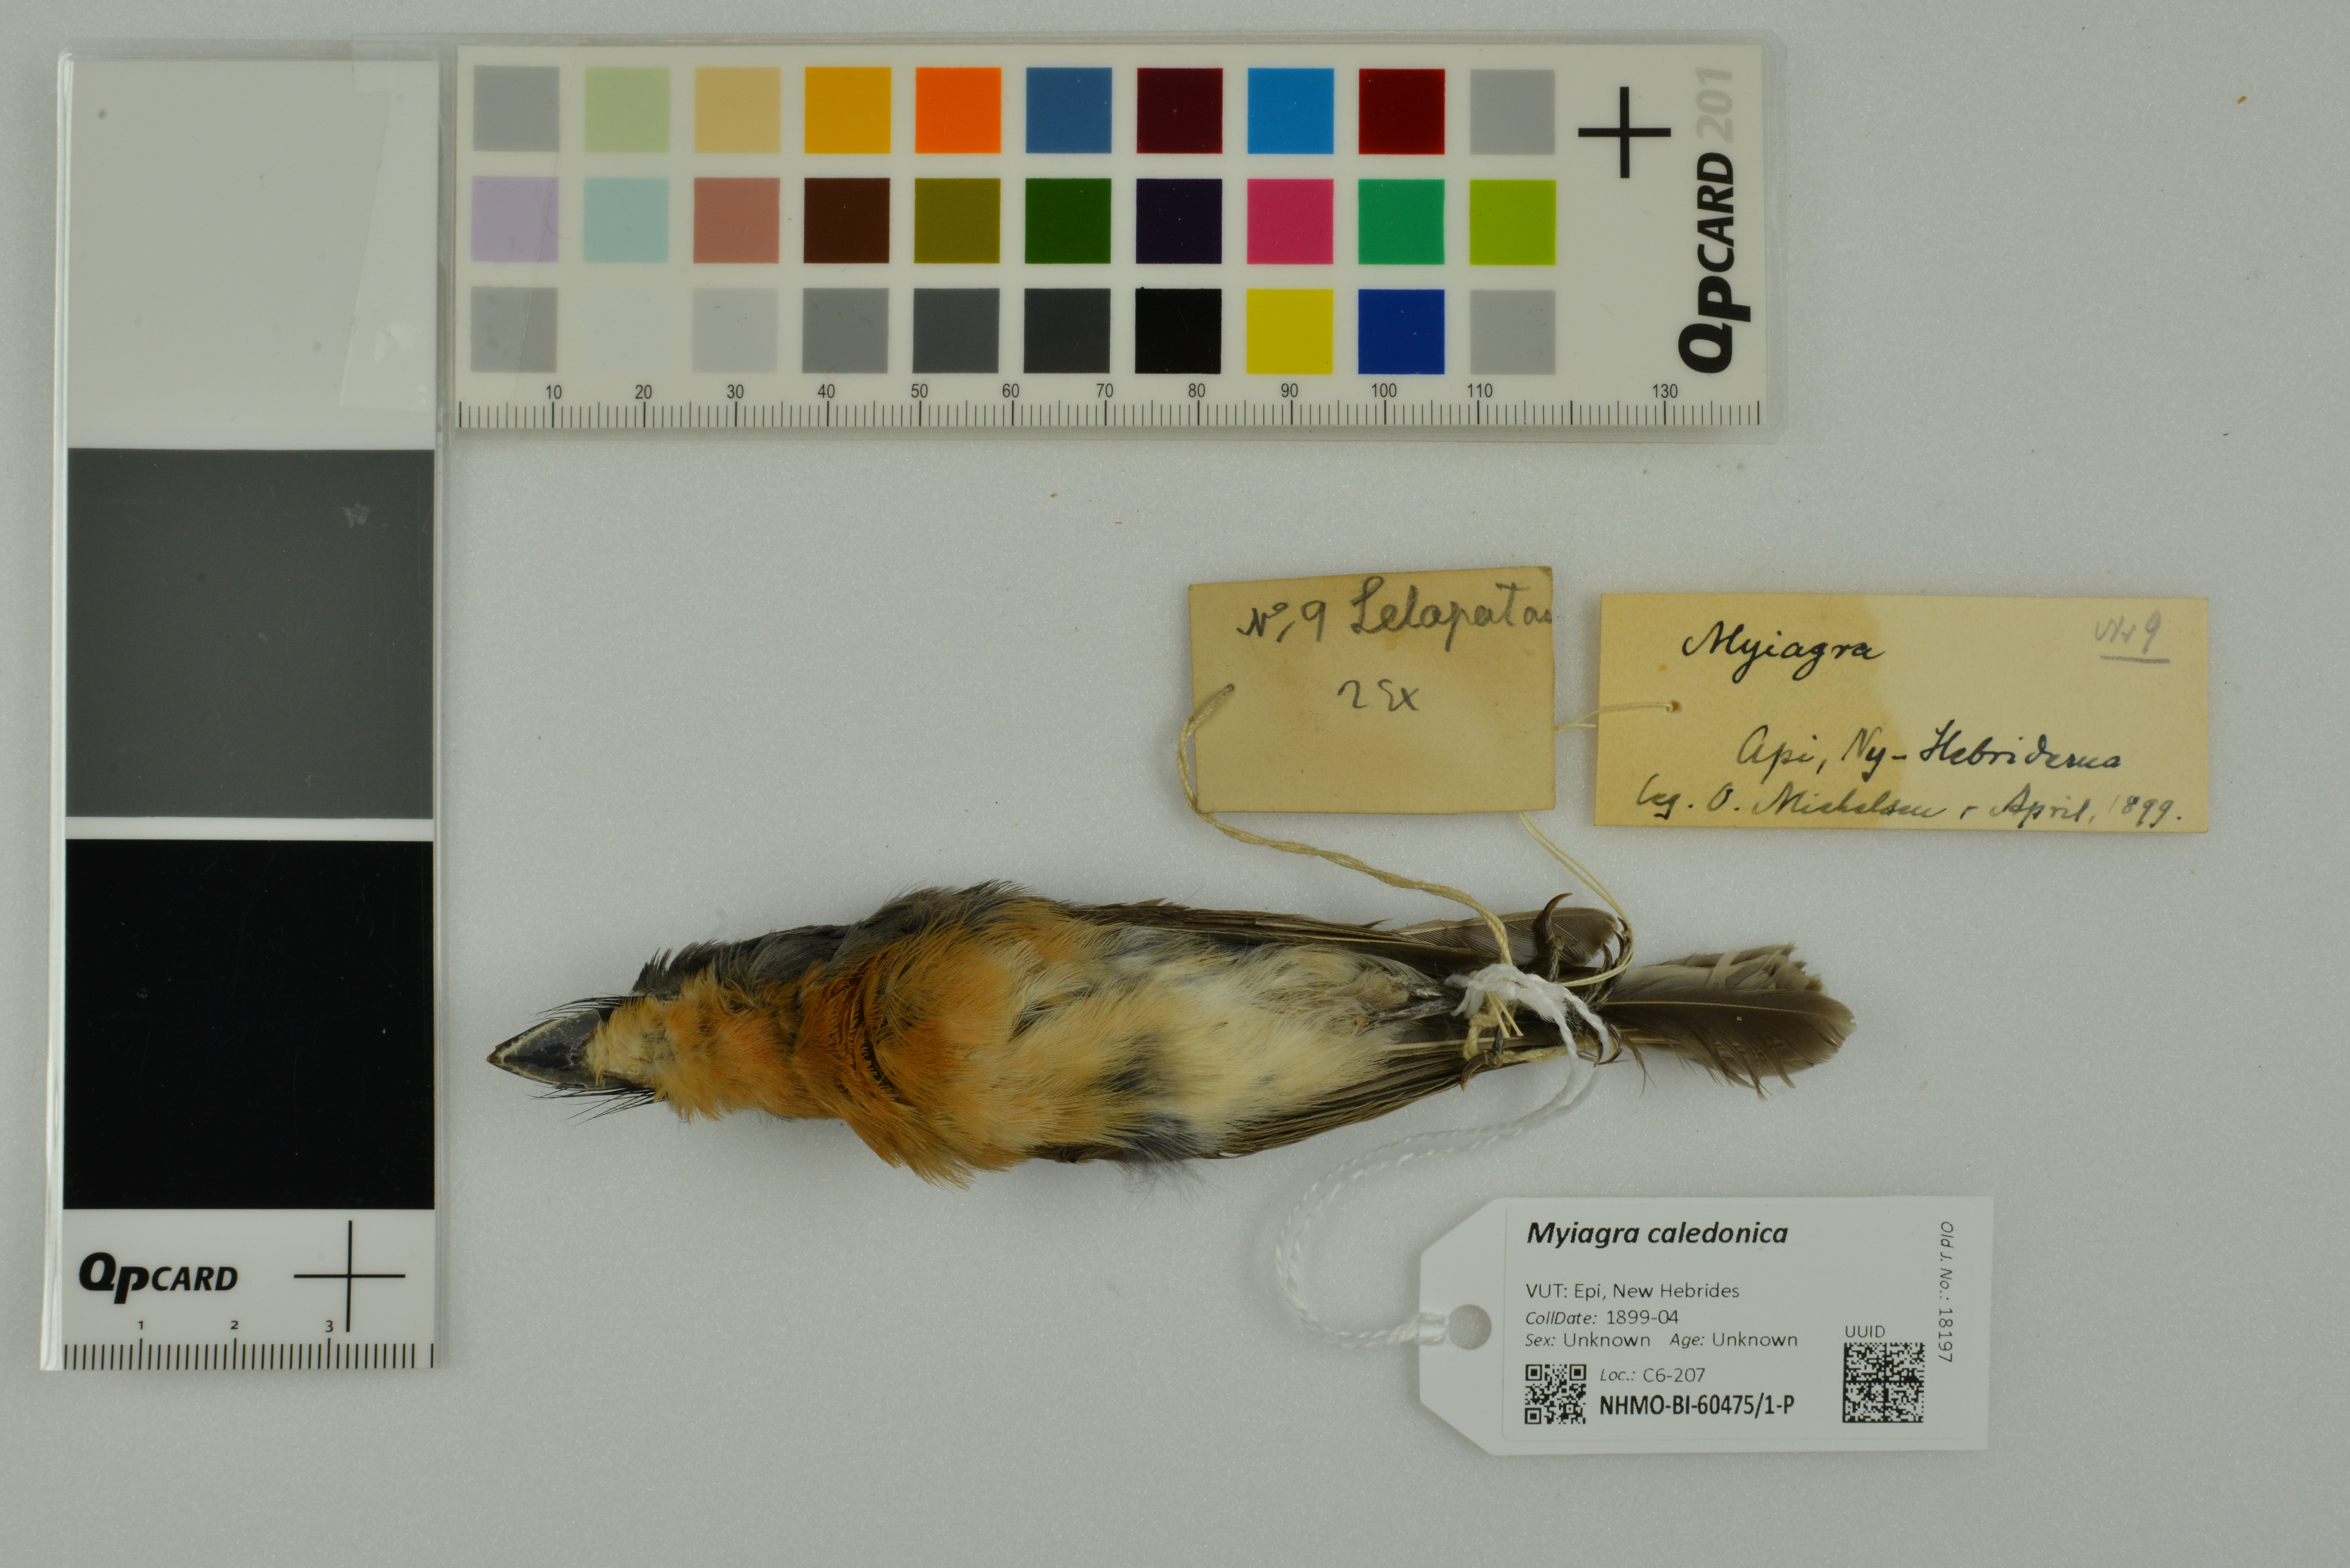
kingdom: Animalia
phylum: Chordata
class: Aves
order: Passeriformes
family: Monarchidae
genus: Myiagra
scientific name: Myiagra caledonica
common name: Melanesian flycatcher
